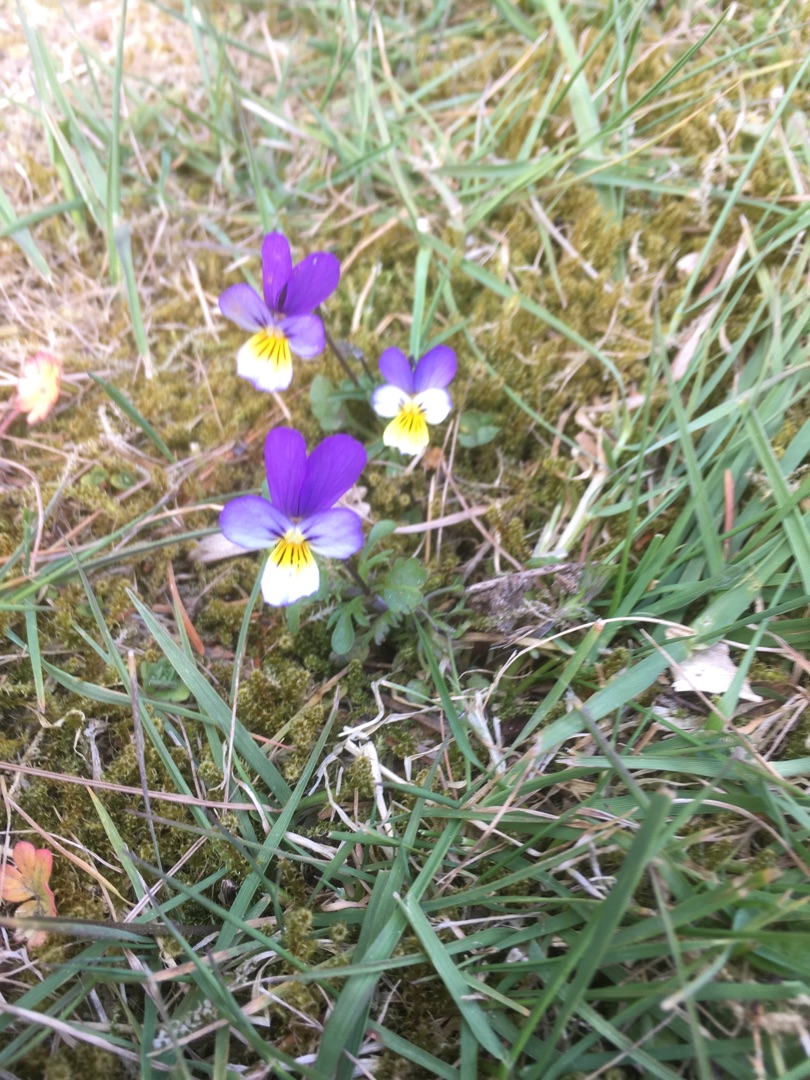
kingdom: Plantae
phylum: Tracheophyta
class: Magnoliopsida
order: Malpighiales
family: Violaceae
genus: Viola
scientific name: Viola tricolor
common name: Stedmoderblomst
